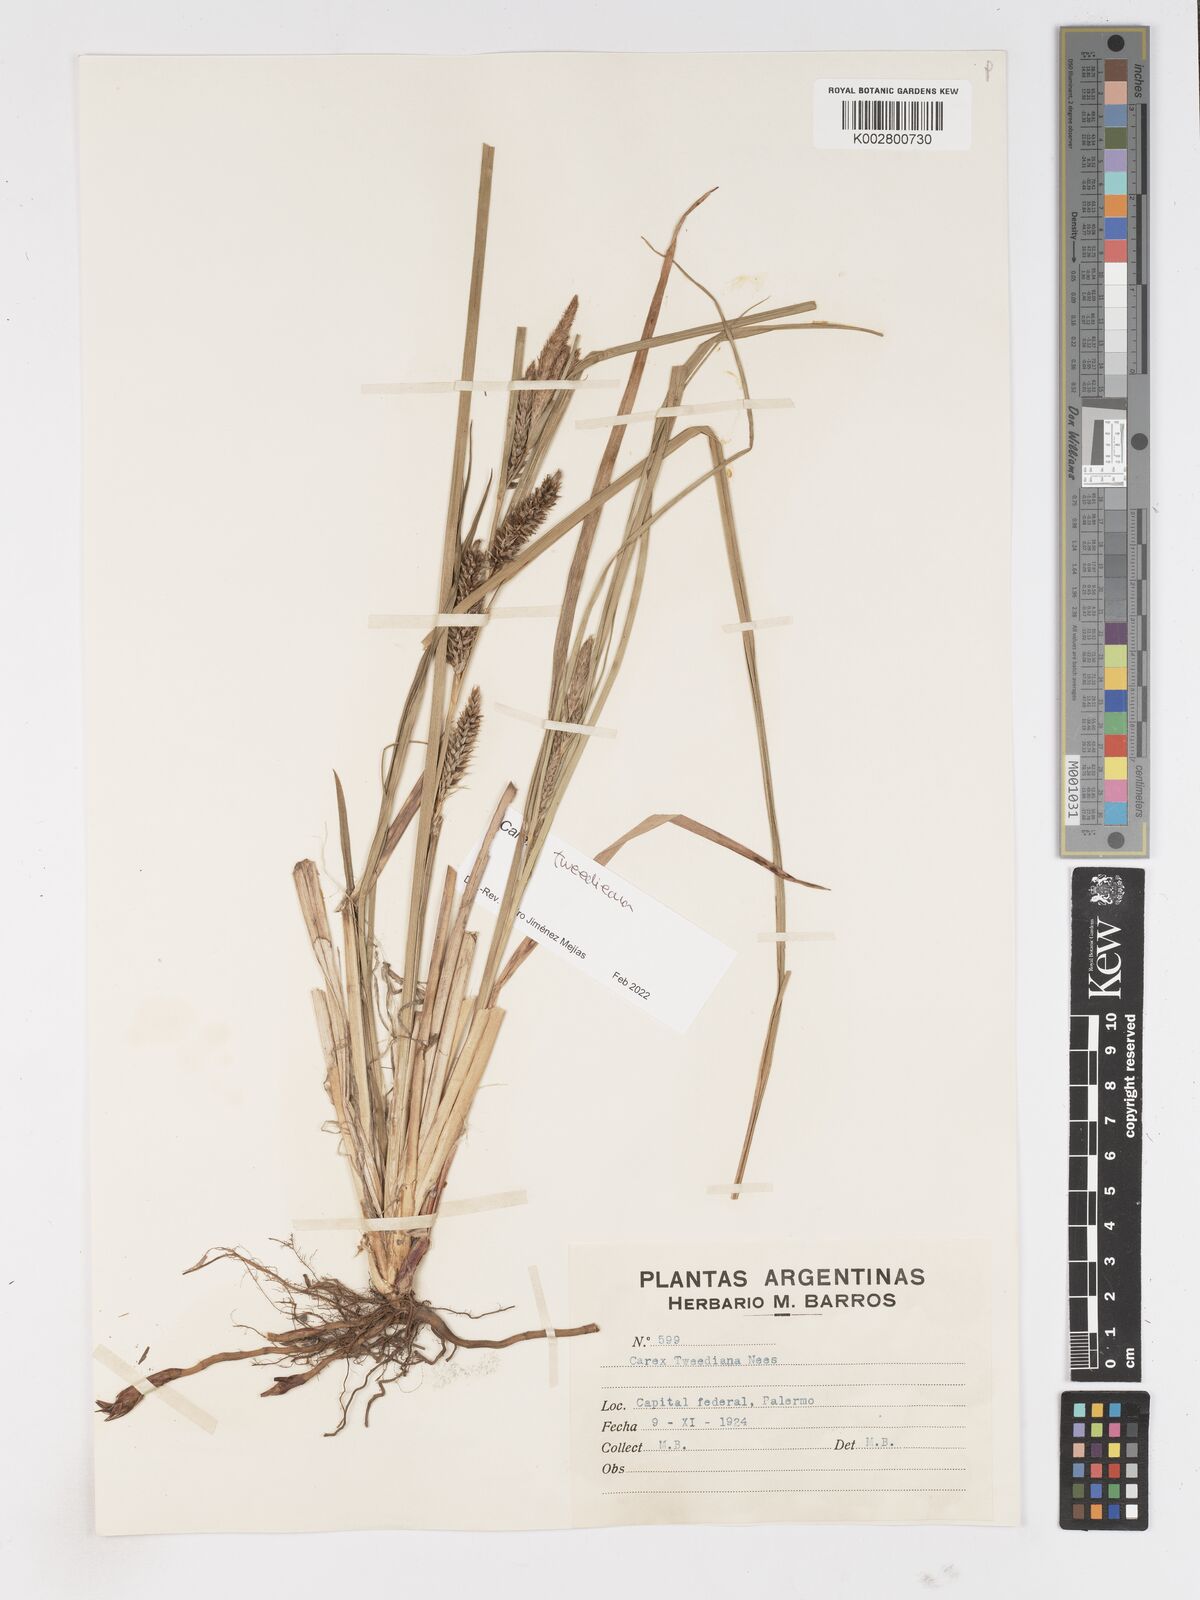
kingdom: Plantae
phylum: Tracheophyta
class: Liliopsida
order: Poales
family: Cyperaceae
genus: Carex
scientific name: Carex tweedieana
